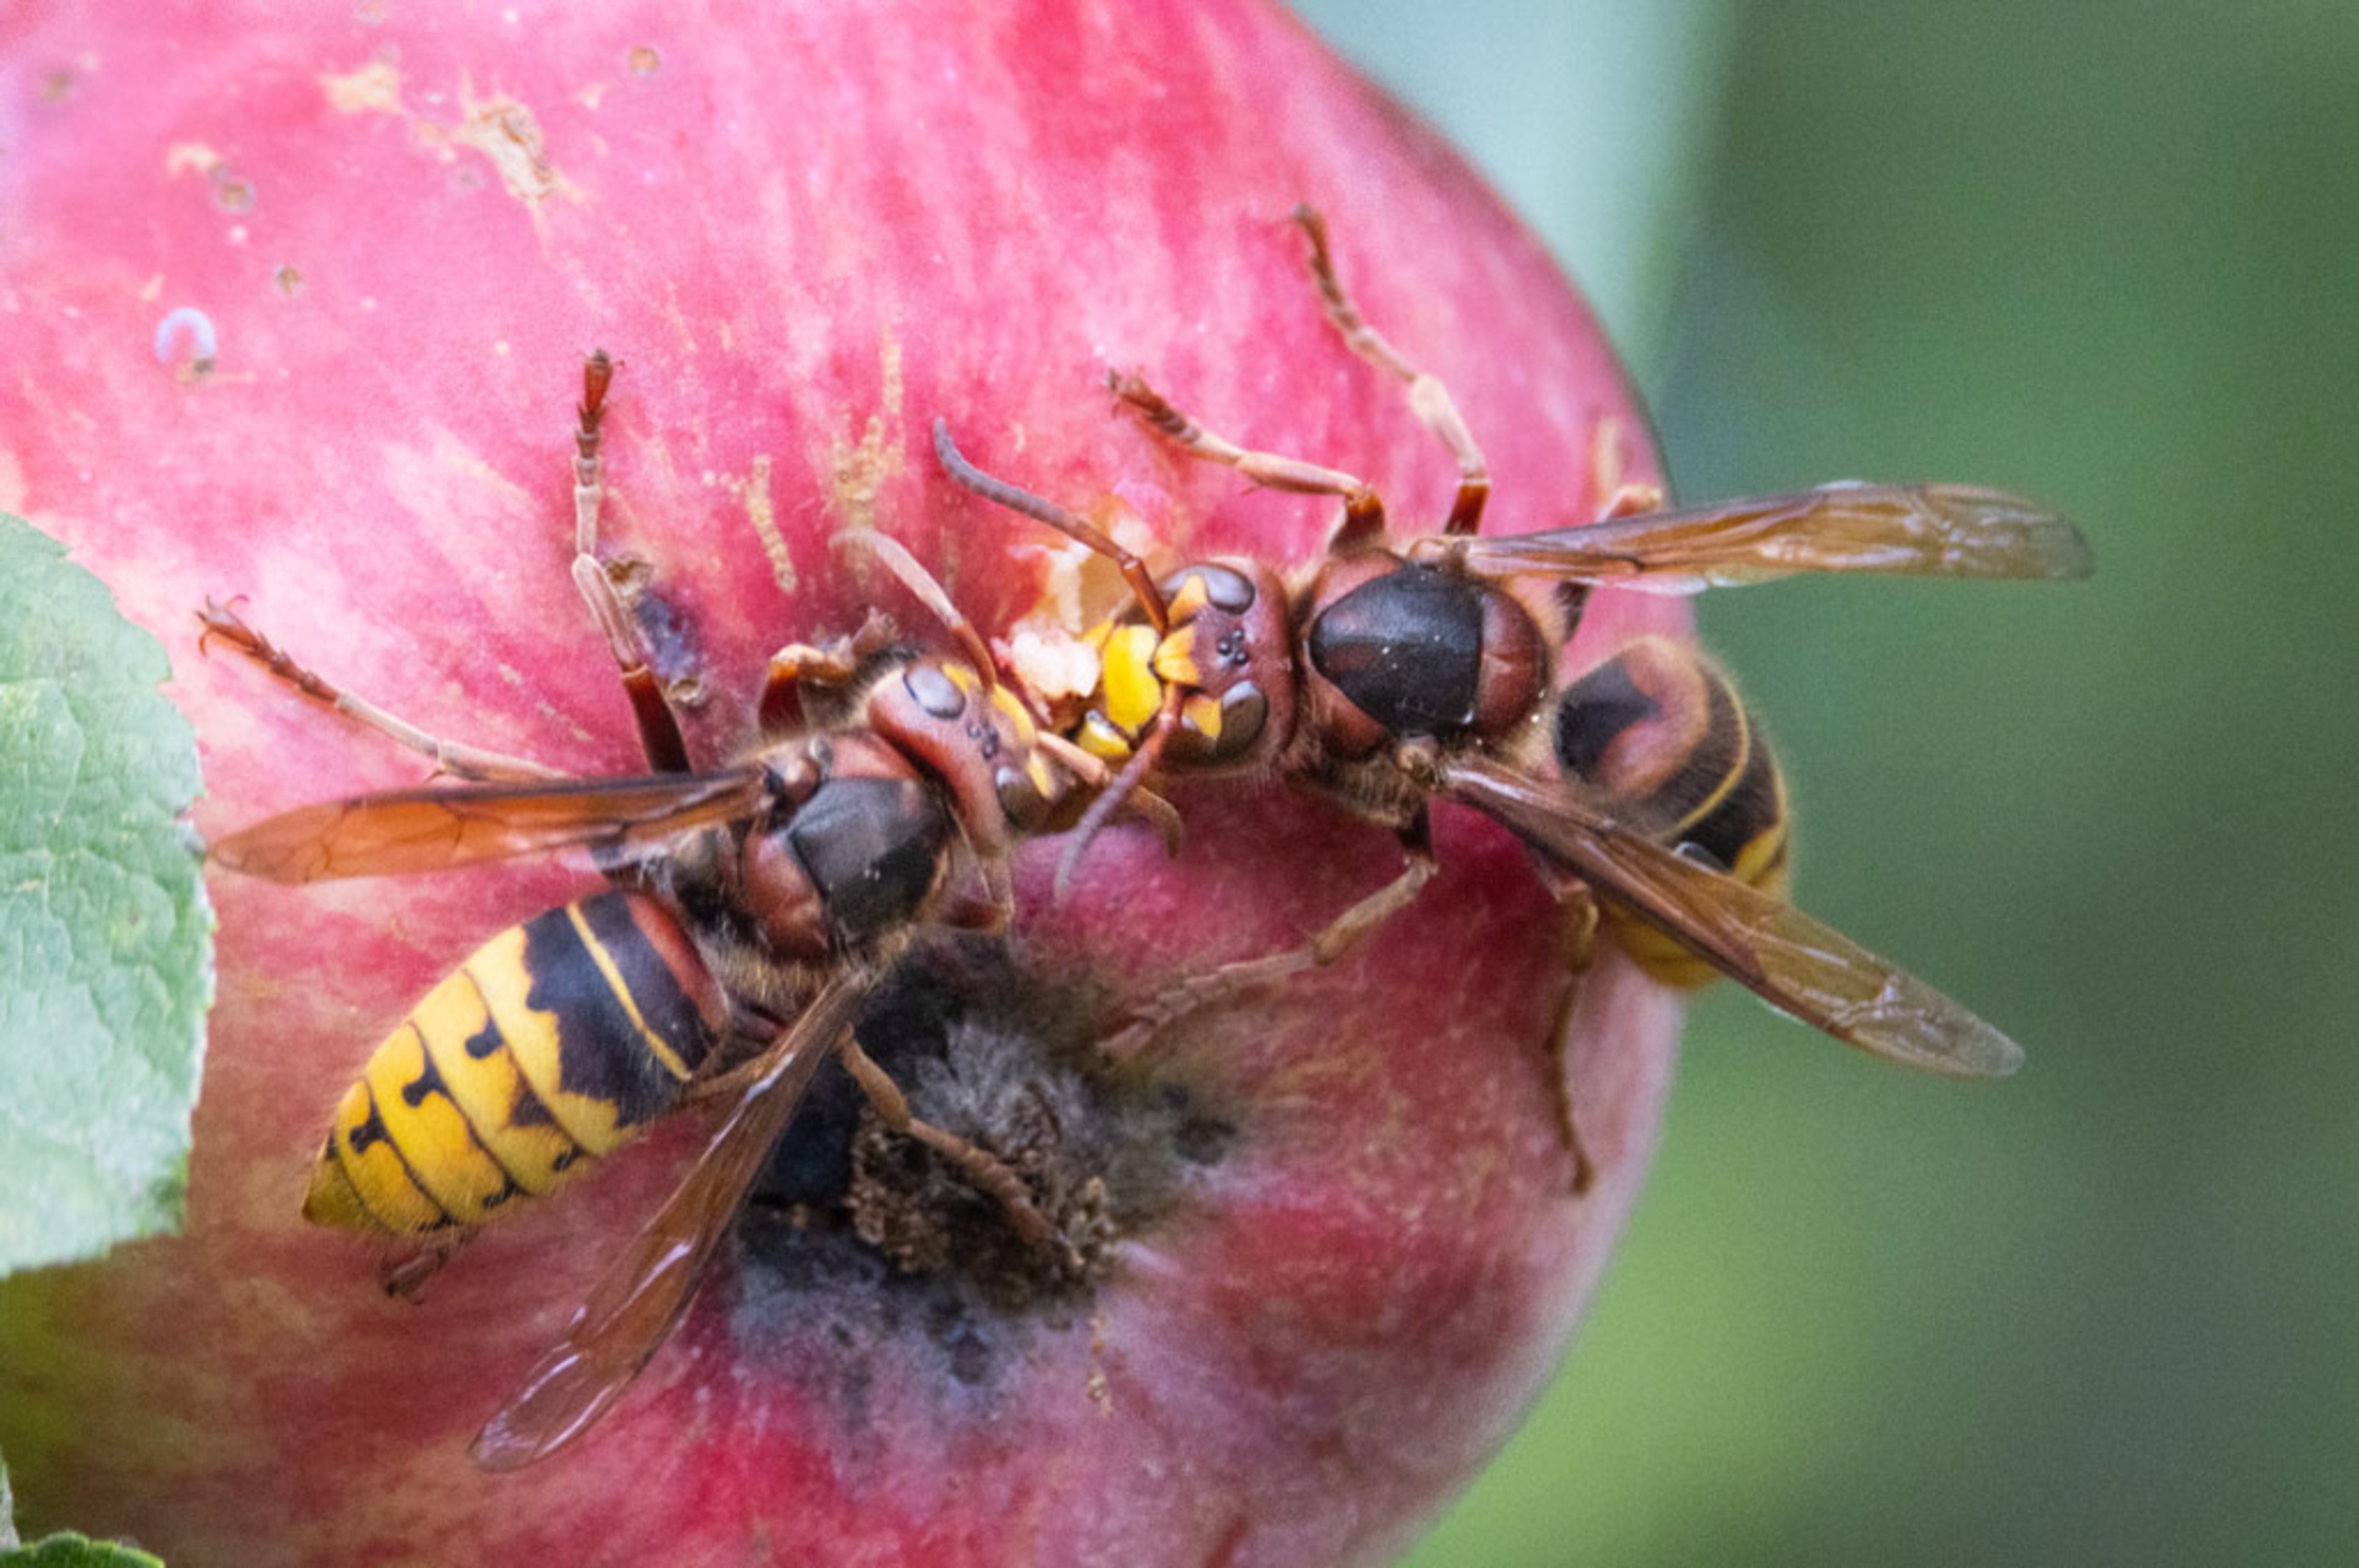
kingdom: Animalia
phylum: Arthropoda
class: Insecta
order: Hymenoptera
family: Vespidae
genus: Vespa
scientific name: Vespa crabro
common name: Stor gedehams
